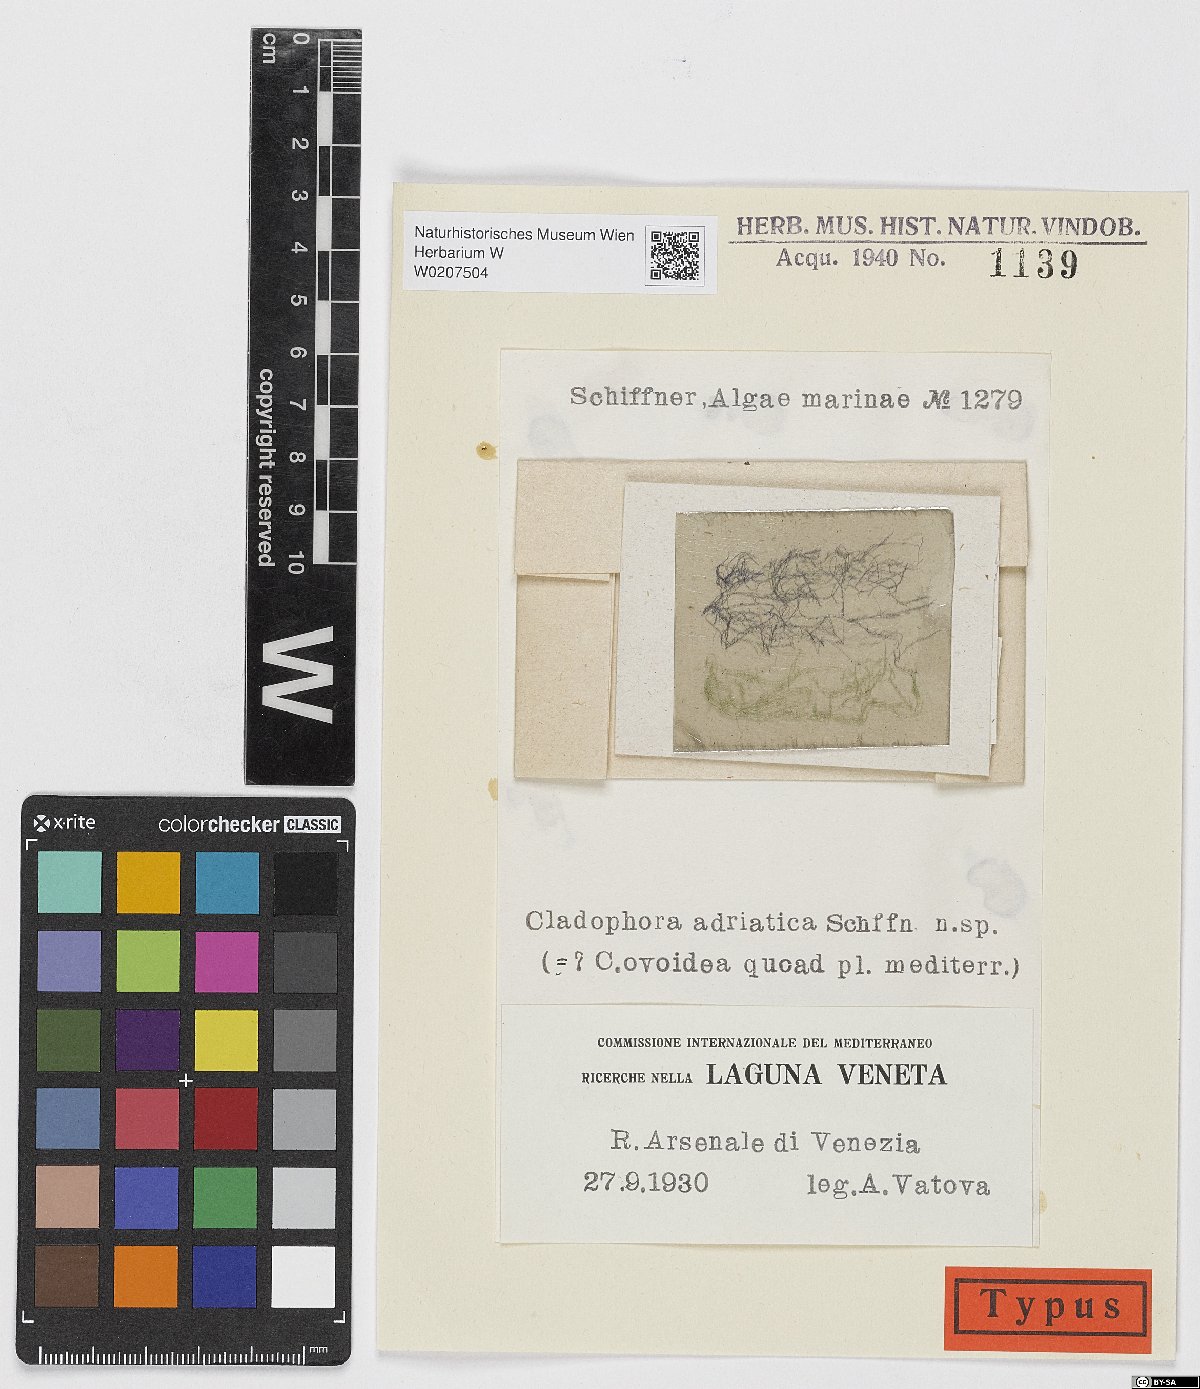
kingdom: Plantae
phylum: Chlorophyta
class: Ulvophyceae
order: Cladophorales
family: Cladophoraceae
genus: Cladophora
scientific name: Cladophora vagabunda
